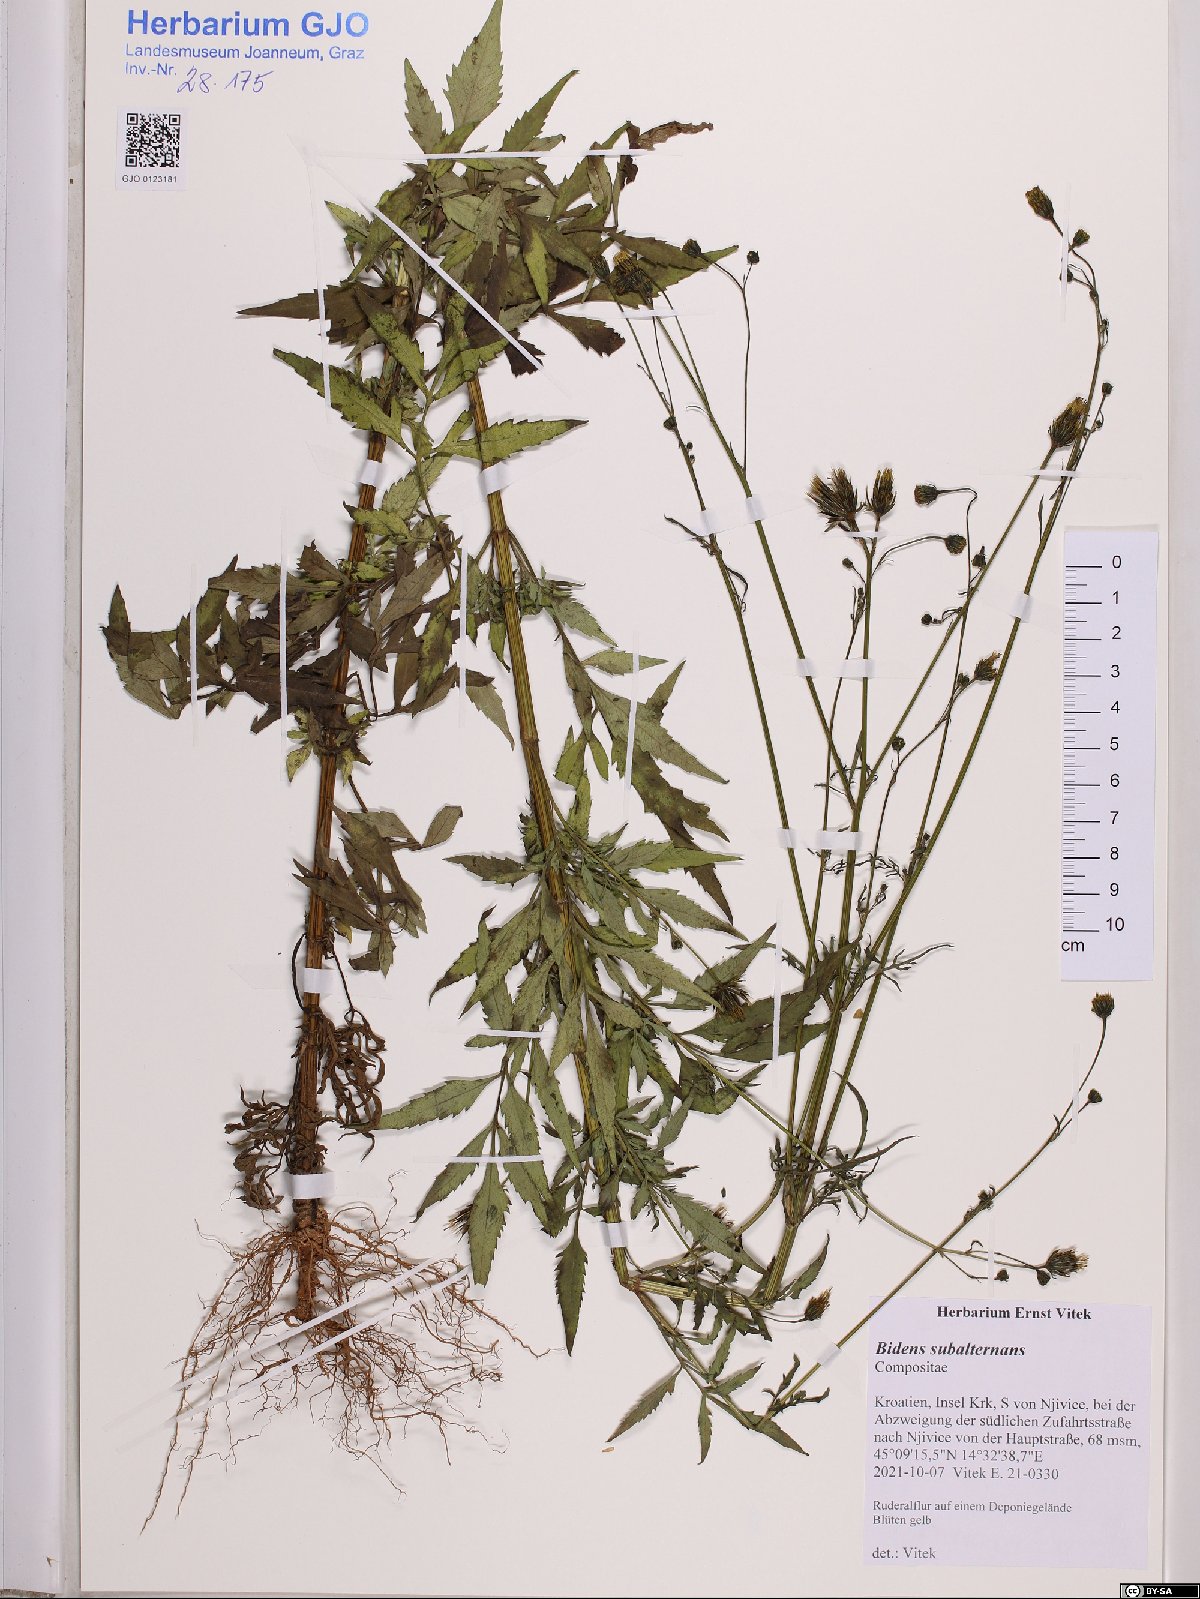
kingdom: Plantae
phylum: Tracheophyta
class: Magnoliopsida
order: Asterales
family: Asteraceae
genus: Bidens
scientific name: Bidens subalternans
